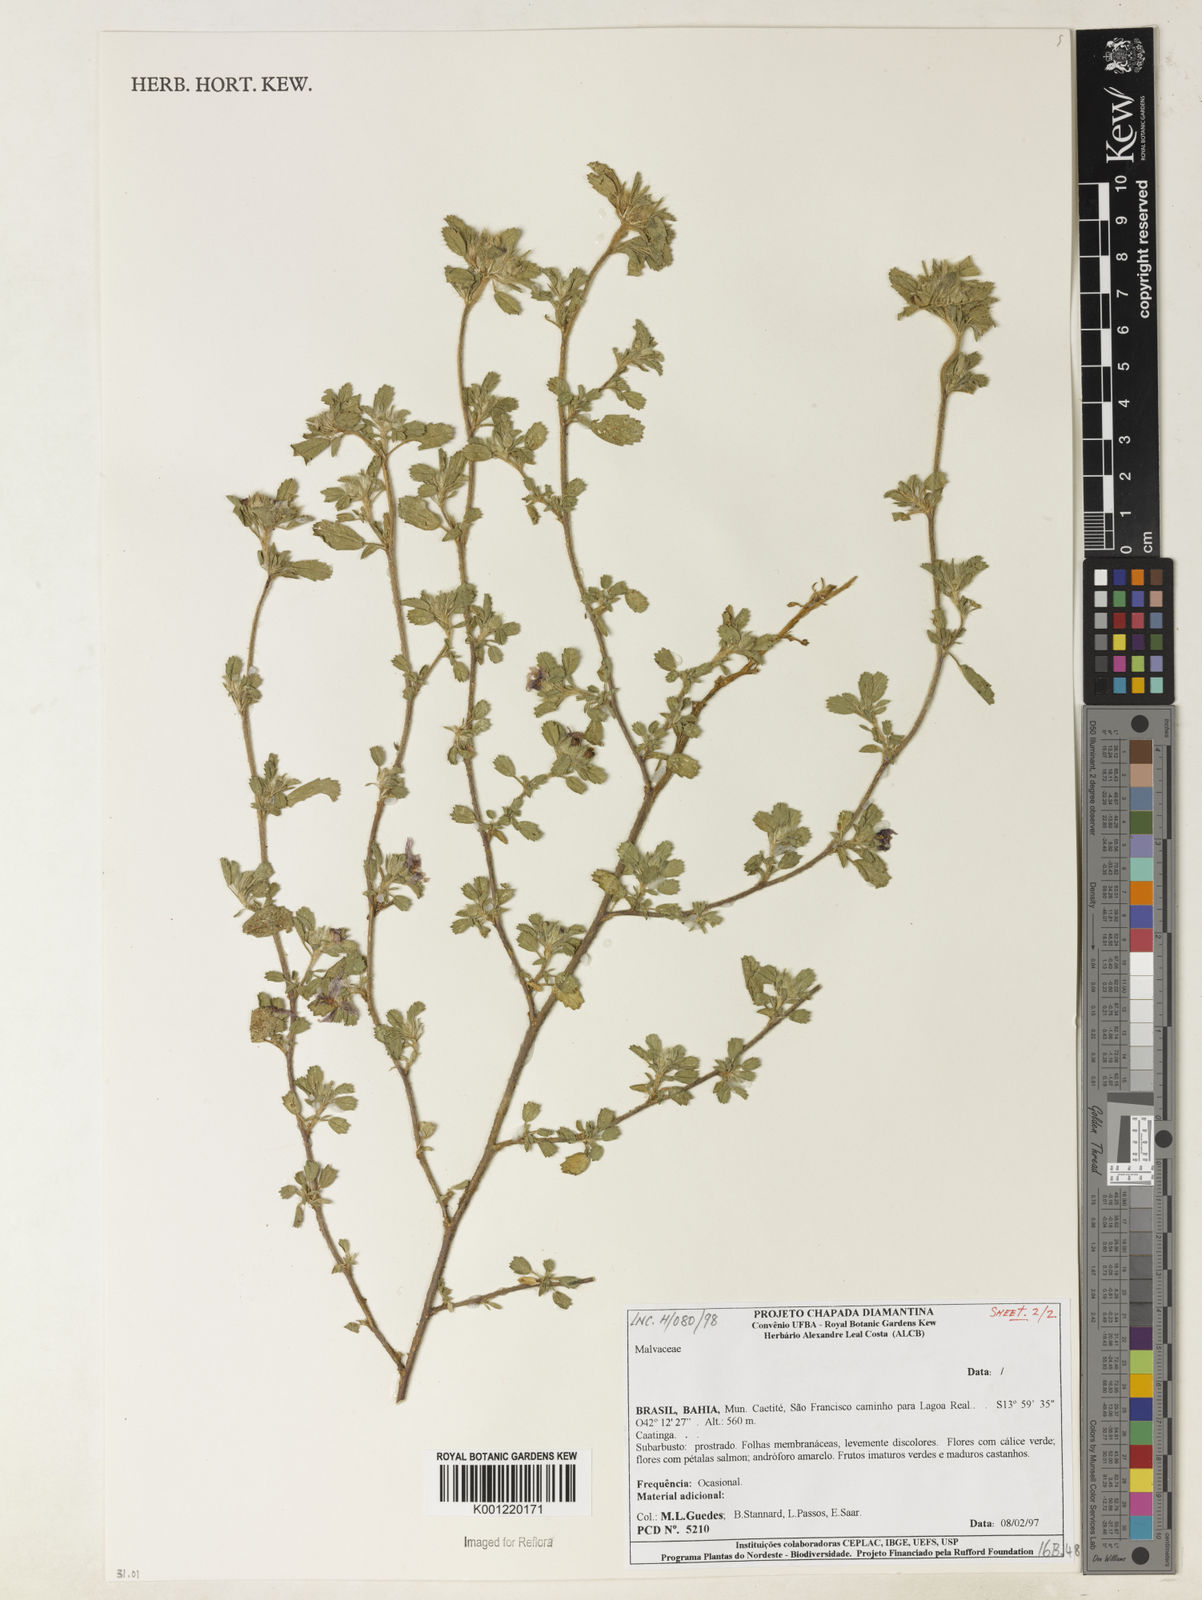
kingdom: Plantae
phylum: Tracheophyta
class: Magnoliopsida
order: Malvales
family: Malvaceae
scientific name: Malvaceae
